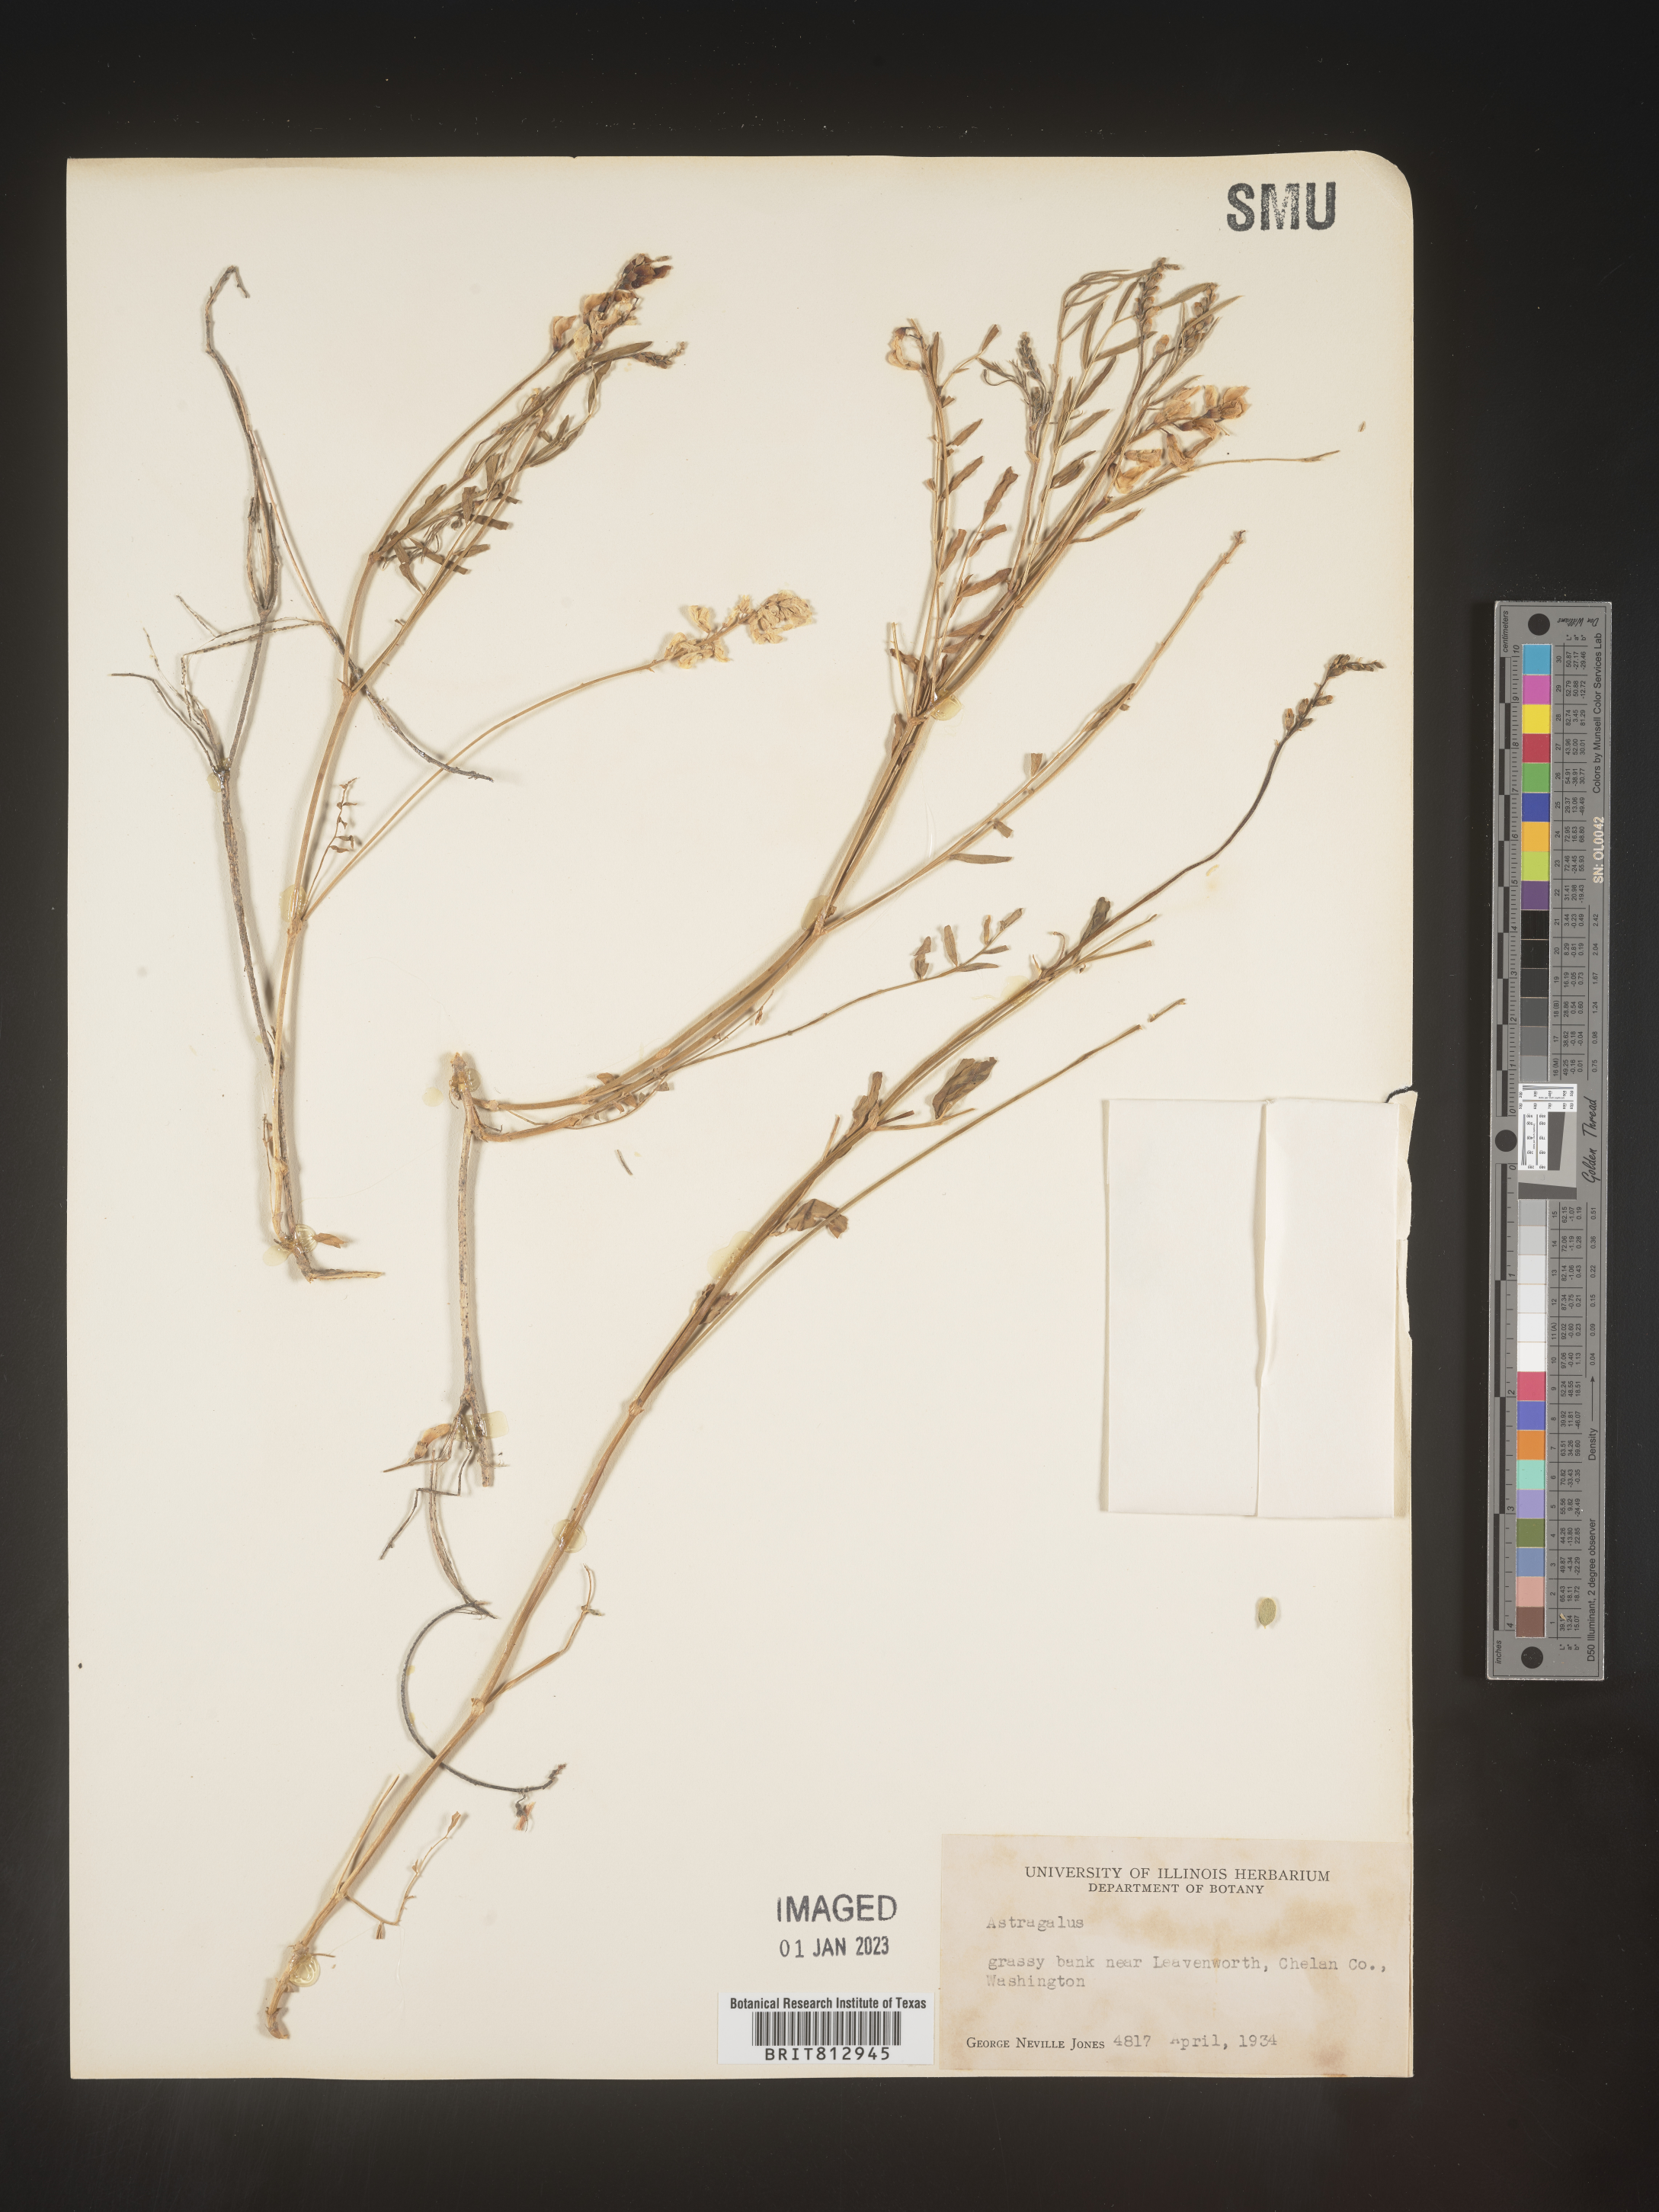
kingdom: Plantae
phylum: Tracheophyta
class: Magnoliopsida
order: Fabales
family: Fabaceae
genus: Astragalus
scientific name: Astragalus
